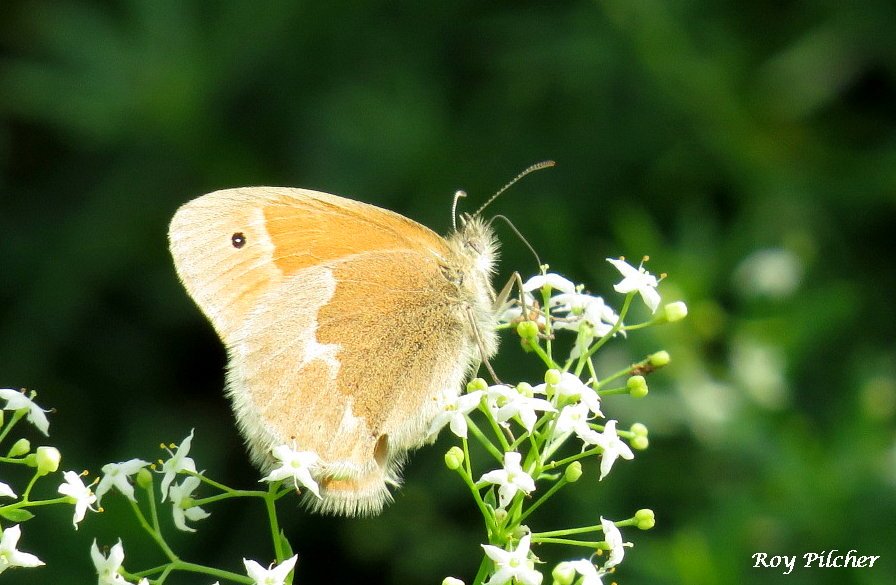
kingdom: Animalia
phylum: Arthropoda
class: Insecta
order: Lepidoptera
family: Nymphalidae
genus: Coenonympha
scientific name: Coenonympha tullia
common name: Large Heath
